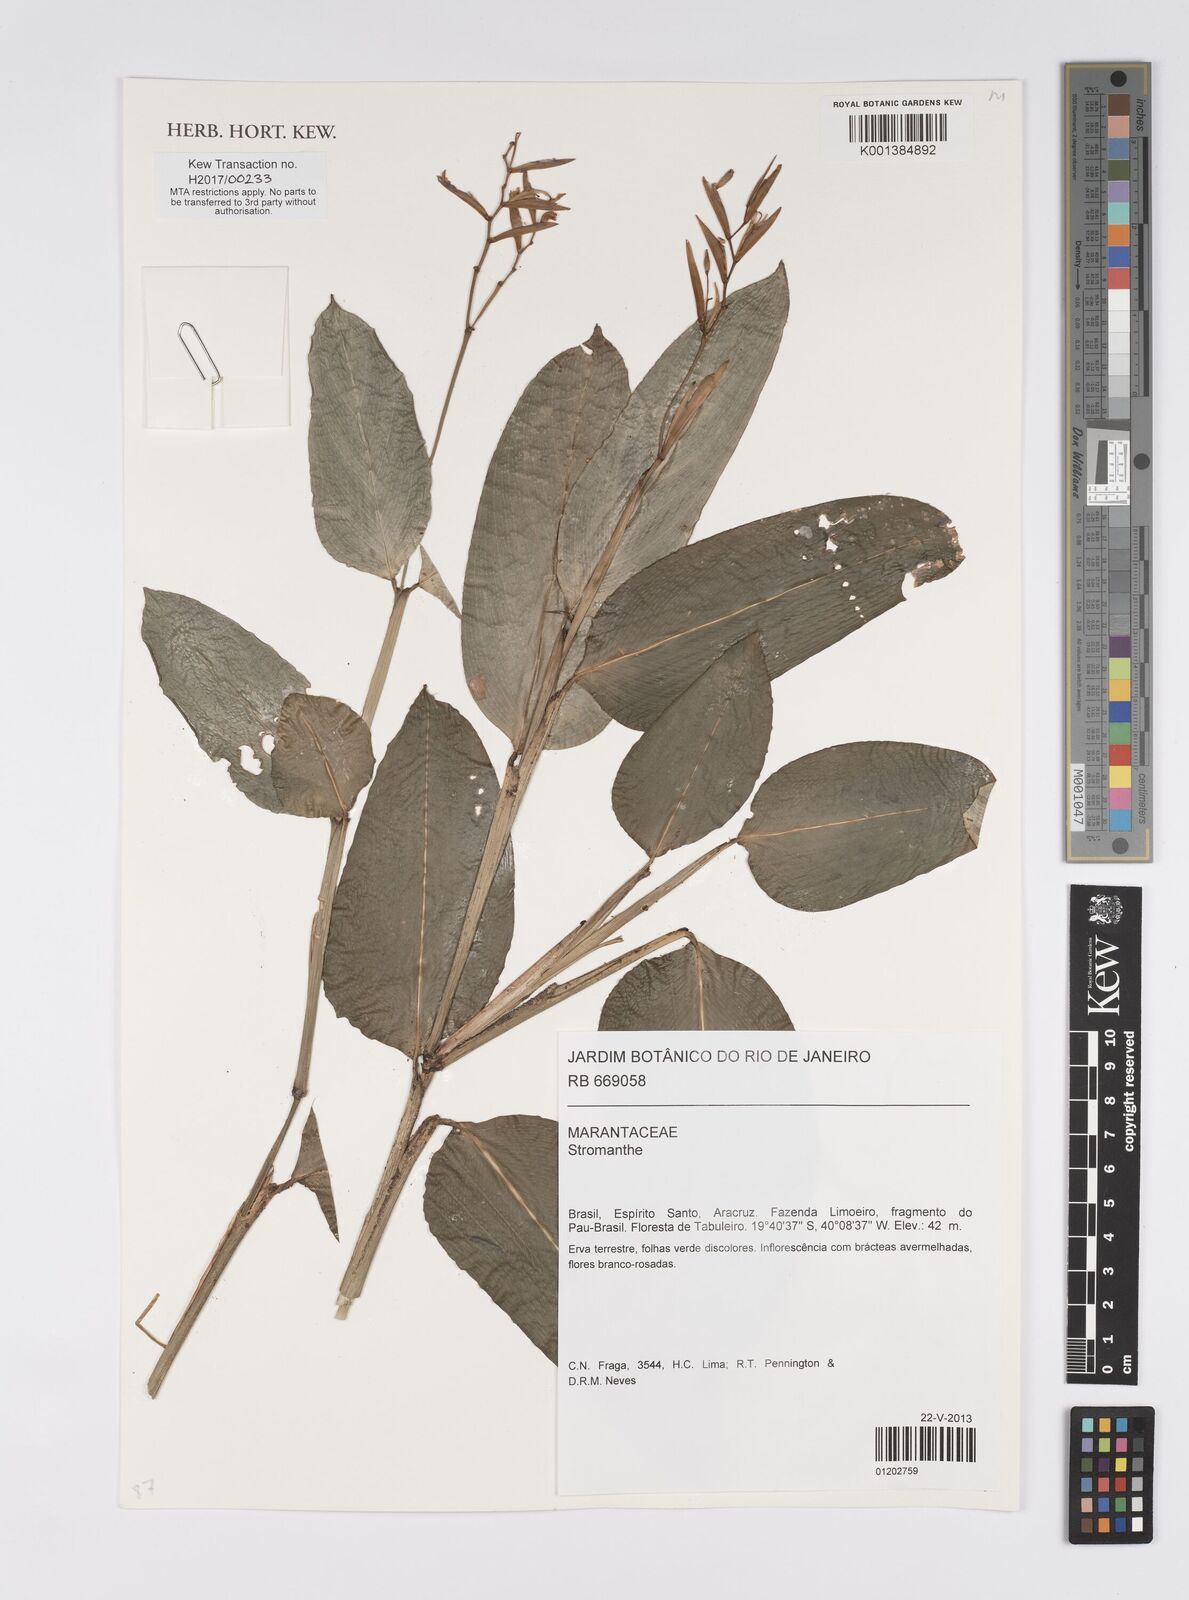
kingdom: Plantae
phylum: Tracheophyta
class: Liliopsida
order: Zingiberales
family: Marantaceae
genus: Stromanthe
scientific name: Stromanthe
